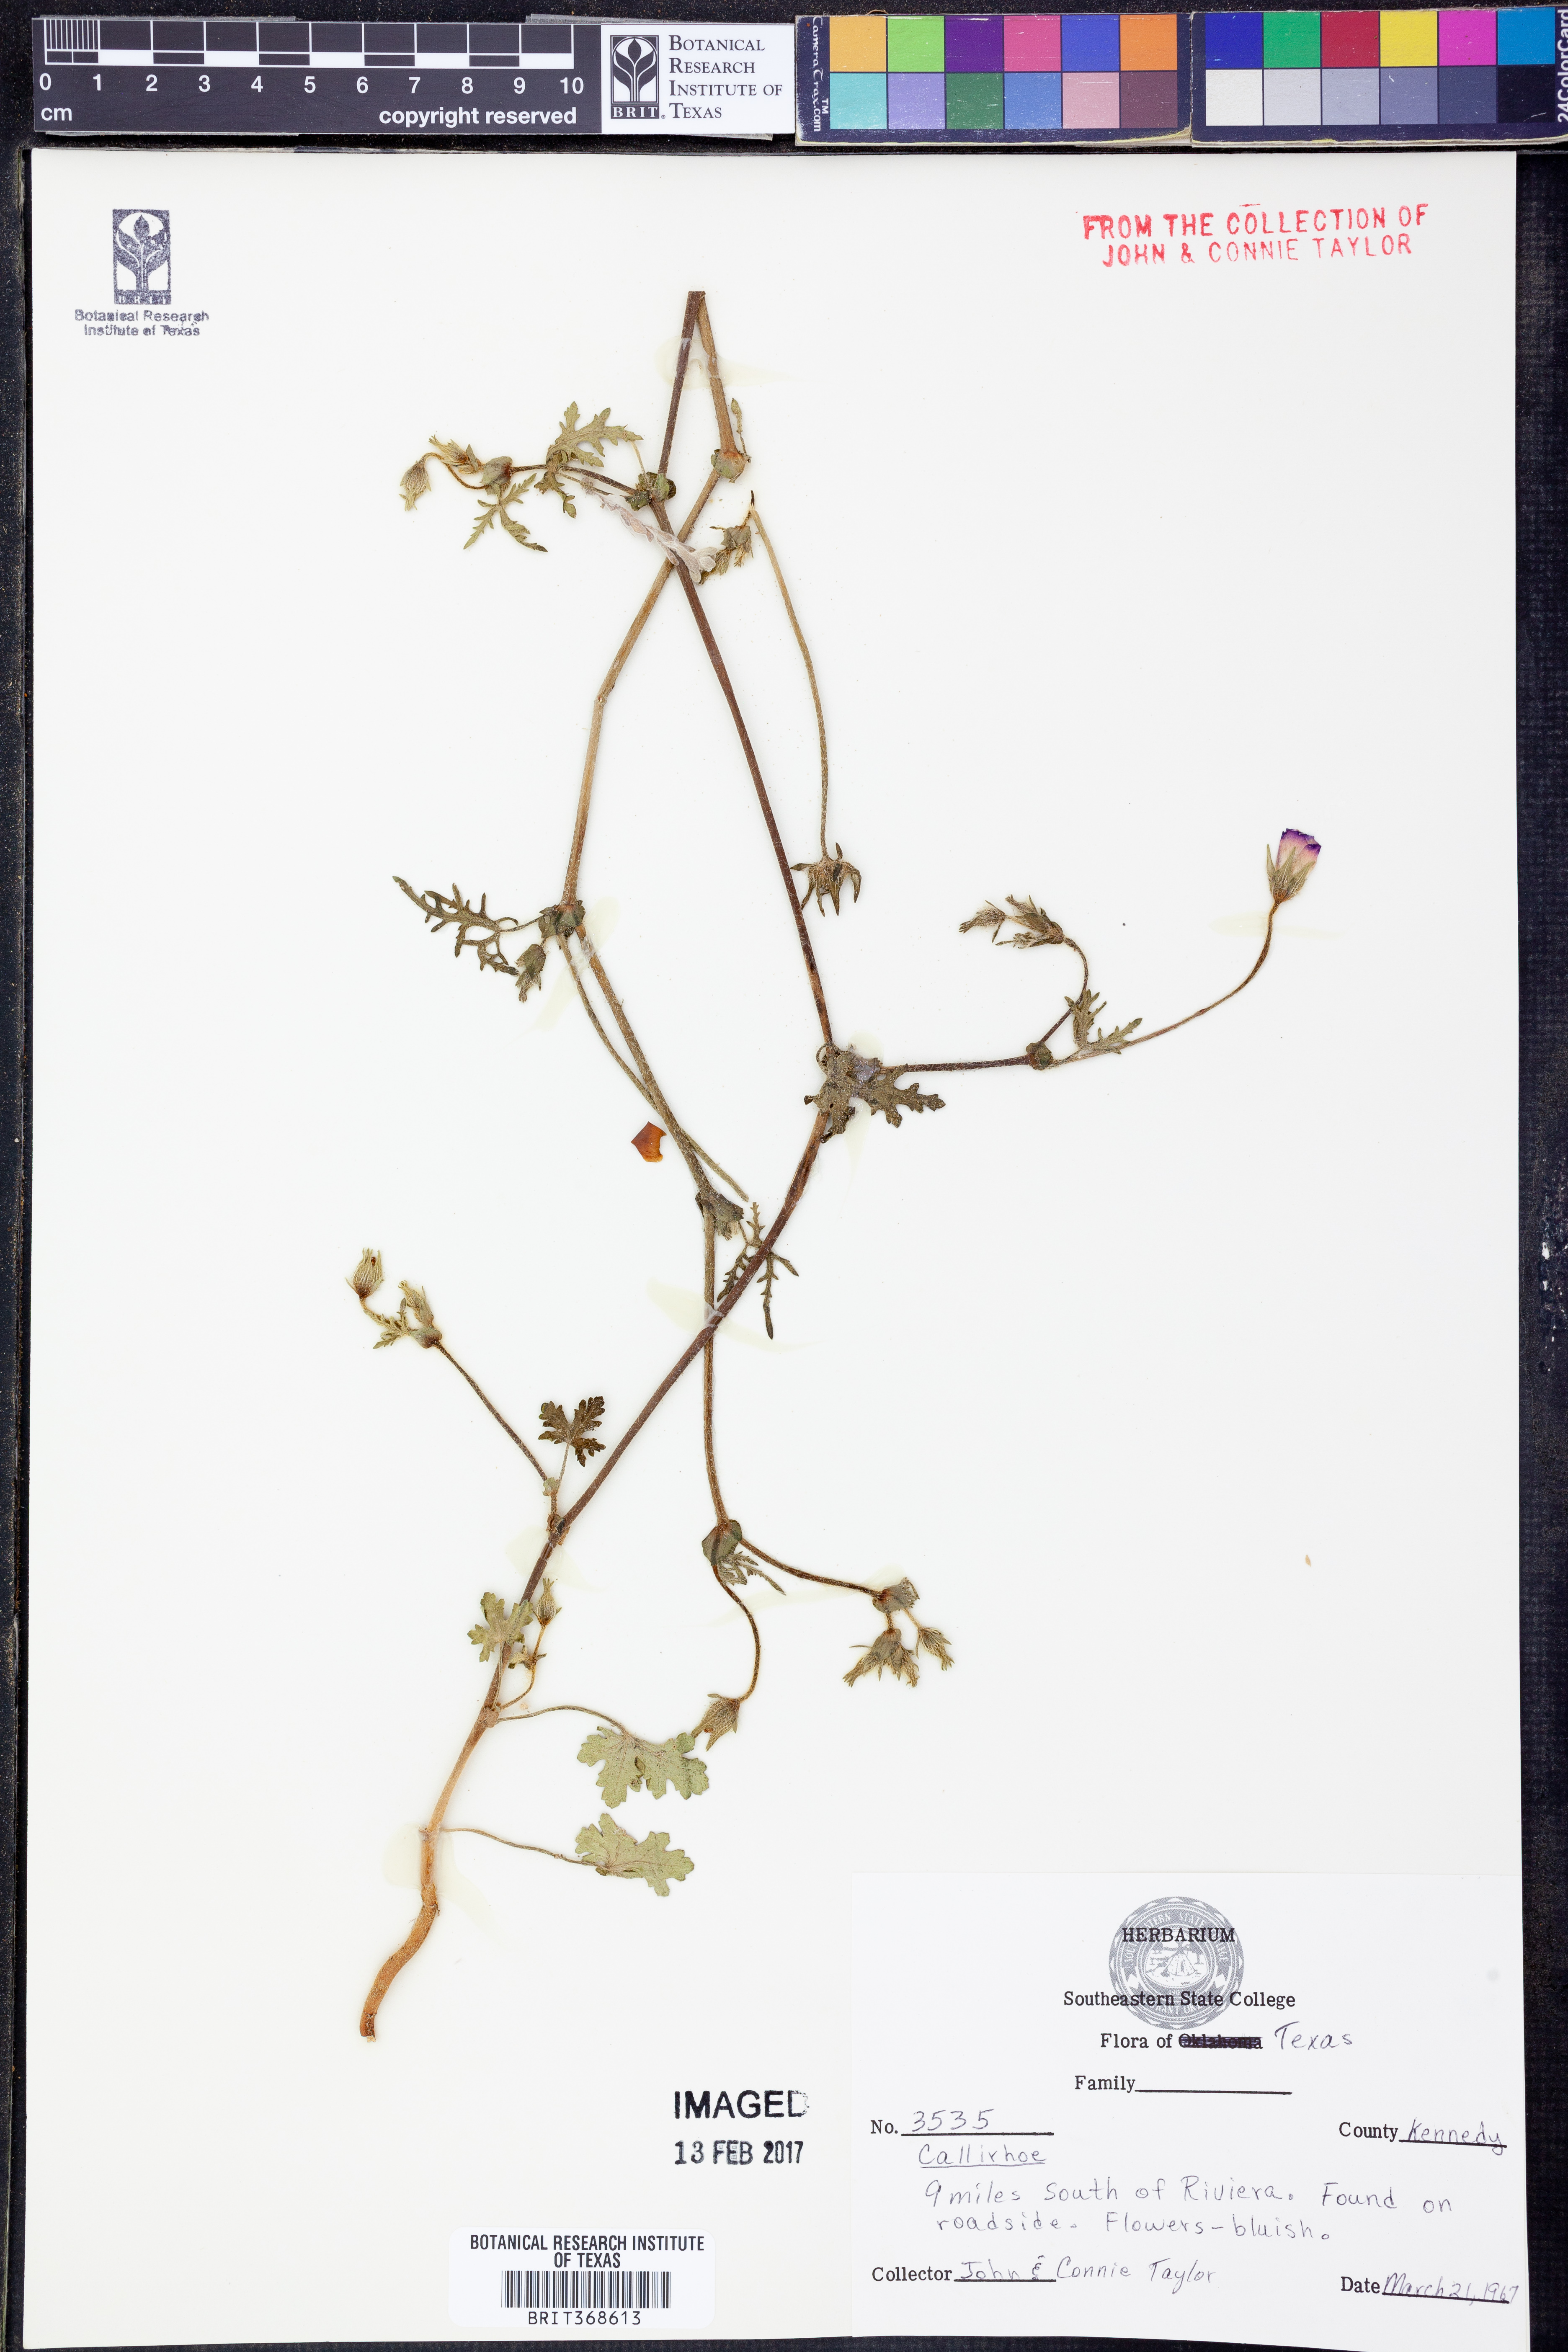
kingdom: Plantae
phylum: Tracheophyta
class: Magnoliopsida
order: Malvales
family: Malvaceae
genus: Callirhoe
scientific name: Callirhoe
